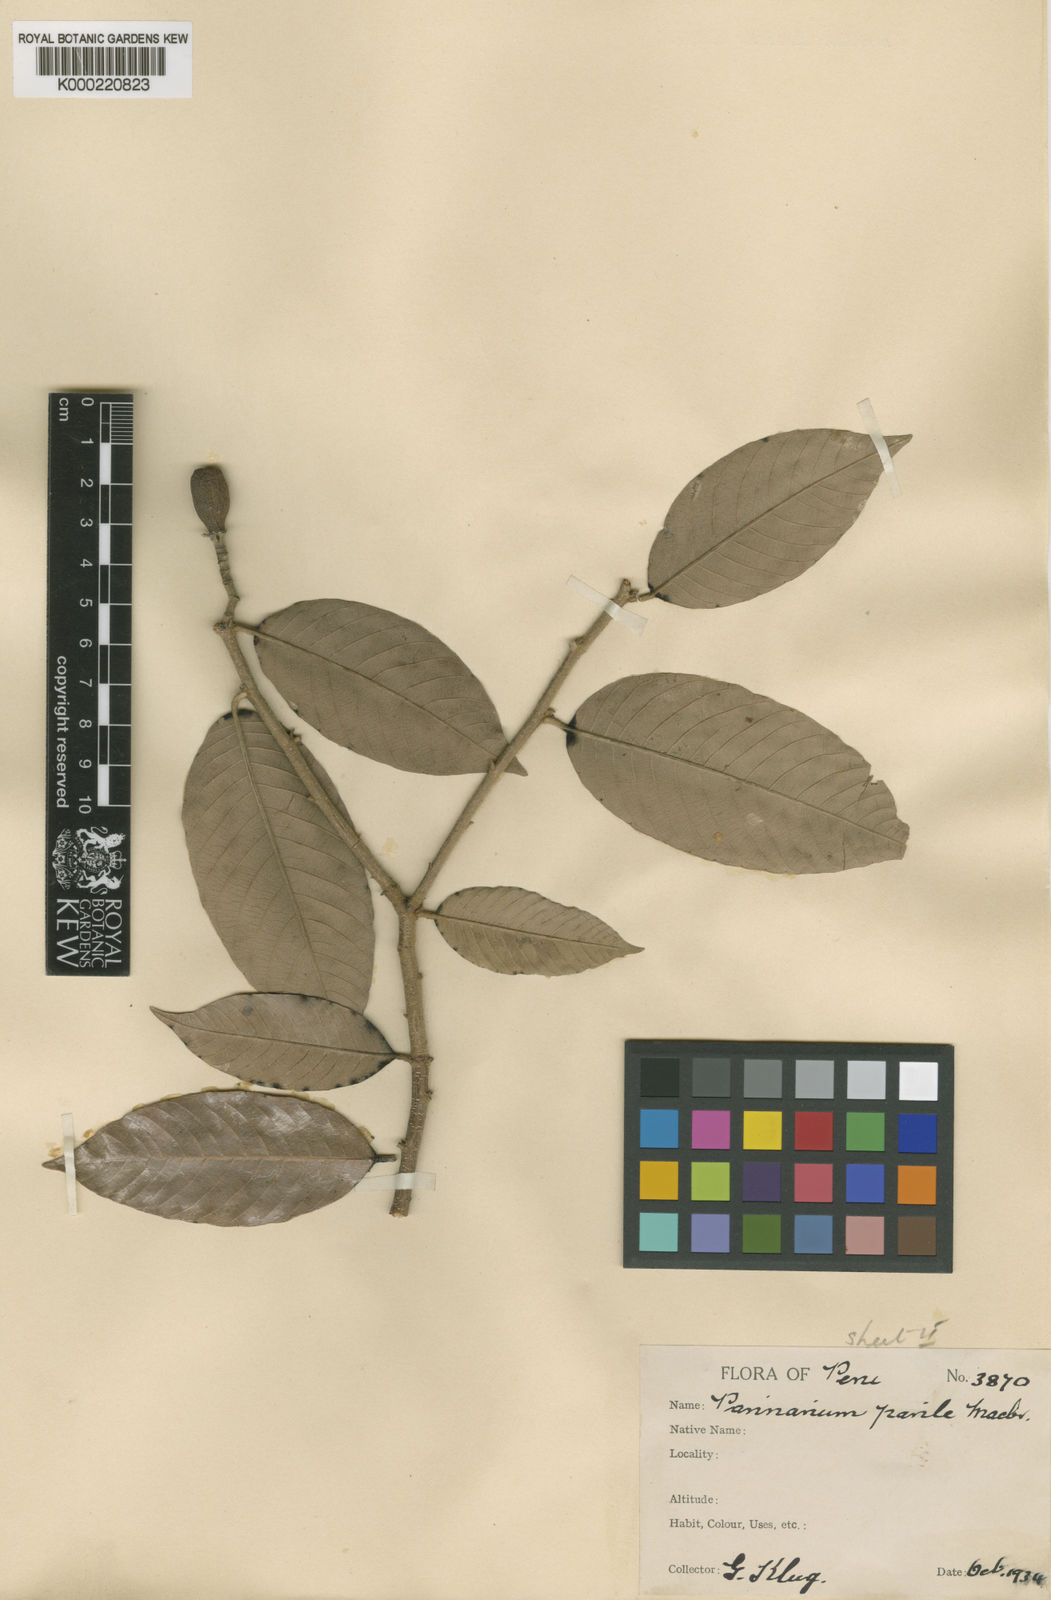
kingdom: Plantae
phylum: Tracheophyta
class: Magnoliopsida
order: Malpighiales
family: Chrysobalanaceae
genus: Parinari
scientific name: Parinari klugii
